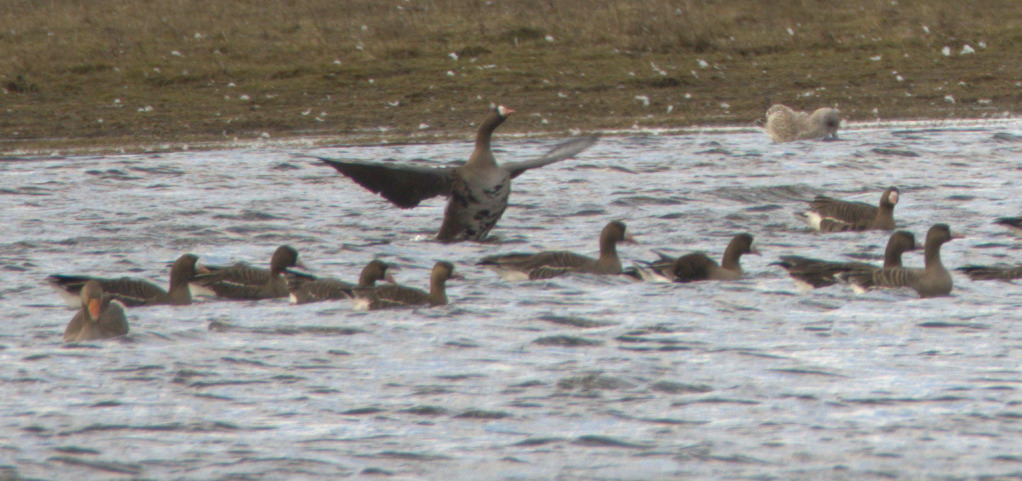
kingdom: Animalia
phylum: Chordata
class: Aves
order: Anseriformes
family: Anatidae
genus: Anser
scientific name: Anser albifrons
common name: Blisgås
